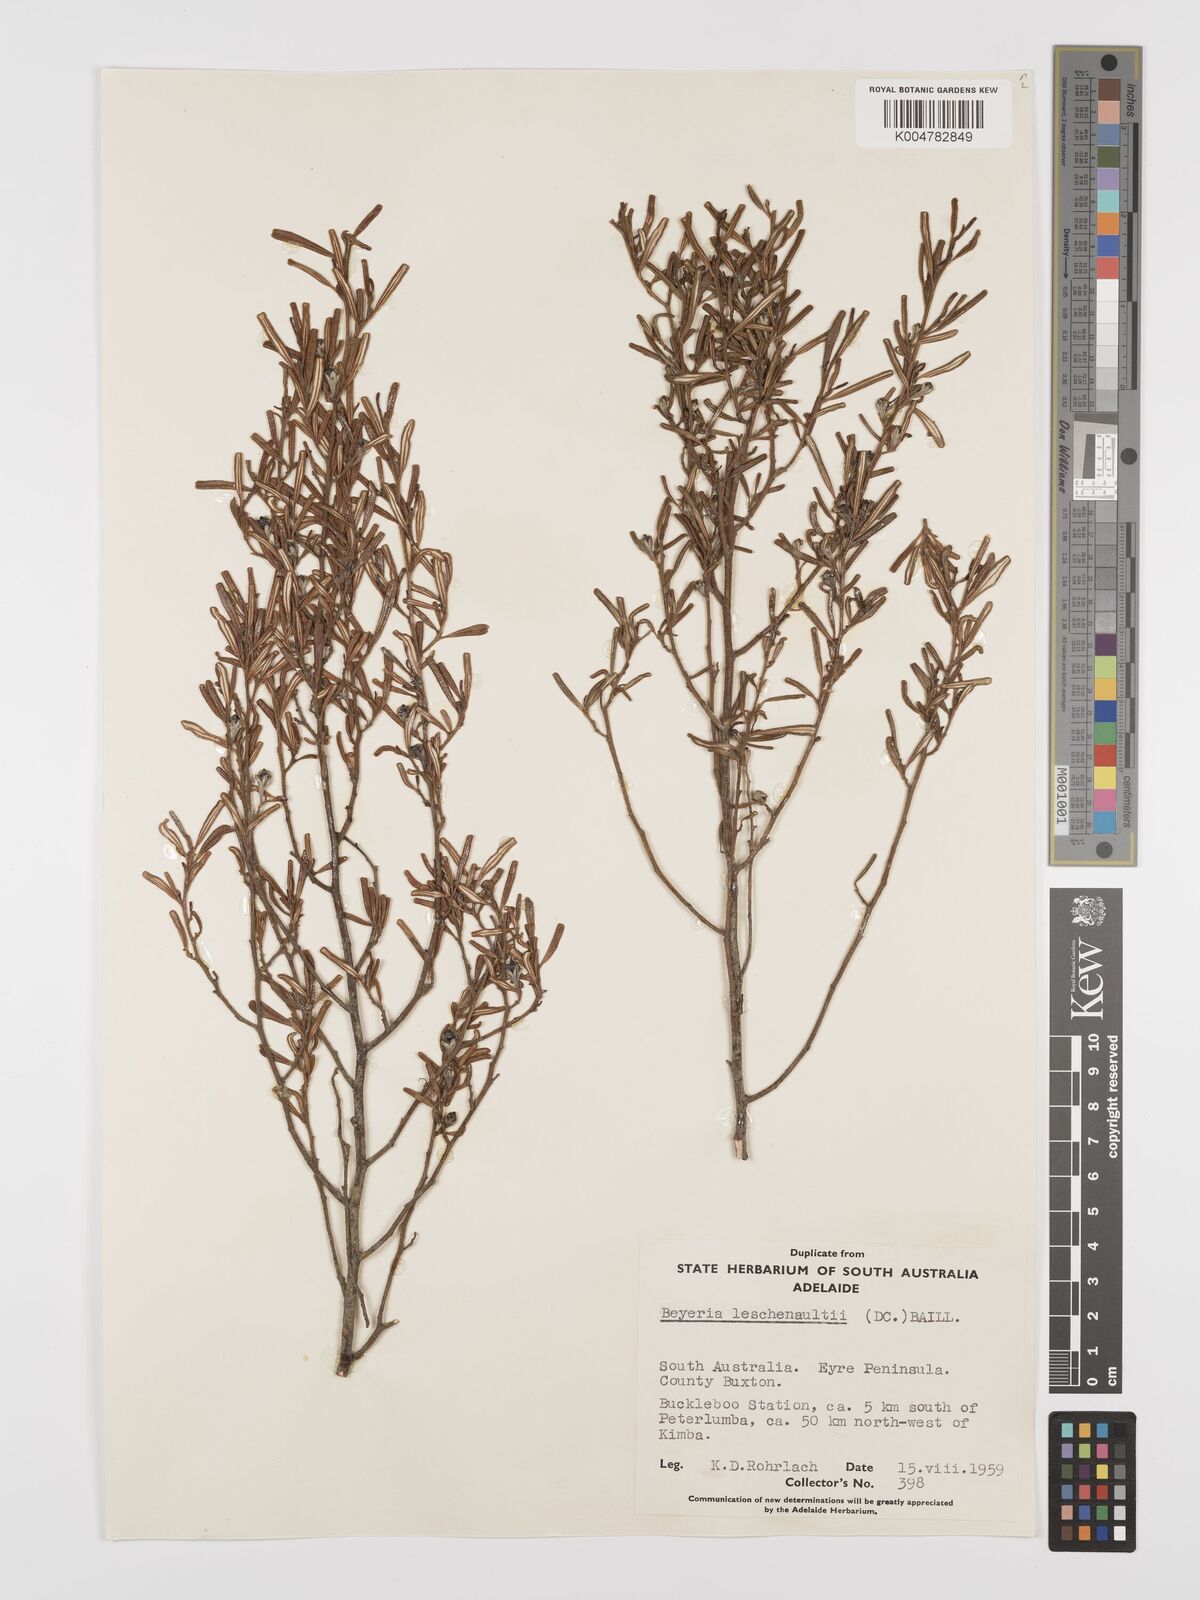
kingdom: Plantae
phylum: Tracheophyta
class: Magnoliopsida
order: Malpighiales
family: Euphorbiaceae
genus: Beyeria
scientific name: Beyeria lechenaultii
